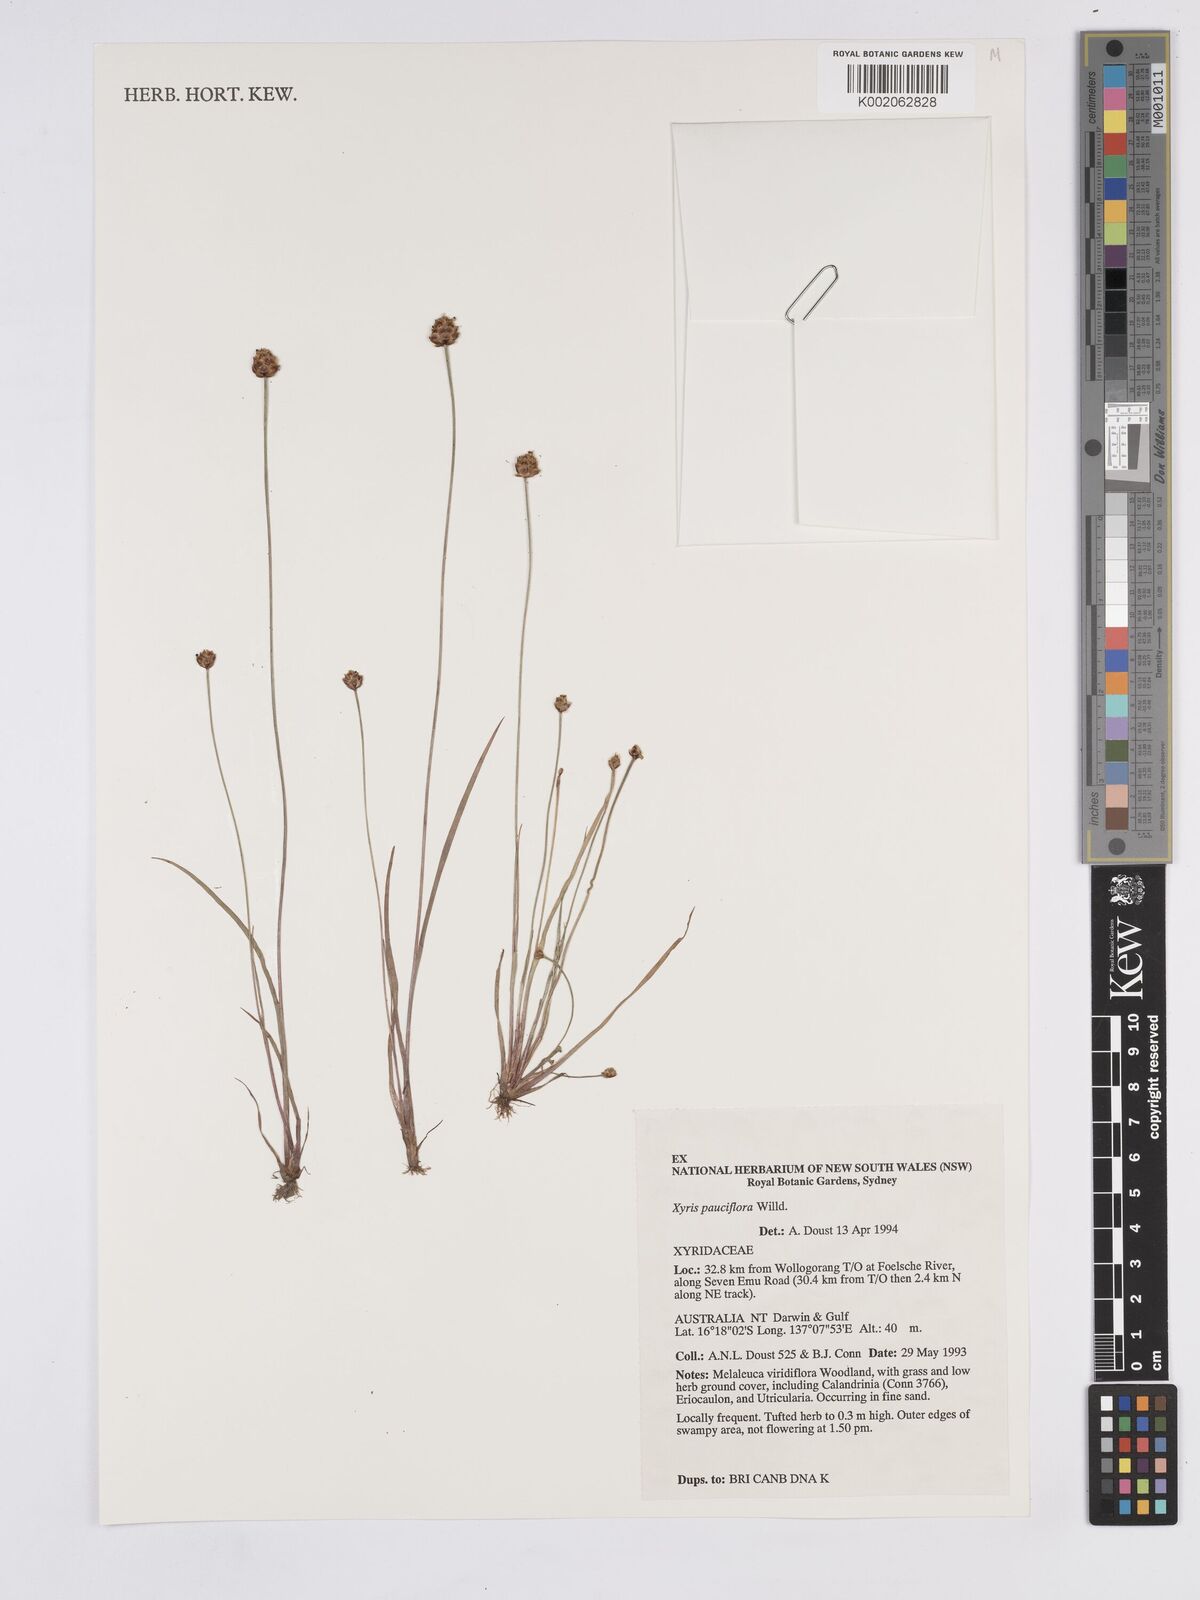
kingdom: Plantae
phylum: Tracheophyta
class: Liliopsida
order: Poales
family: Xyridaceae
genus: Xyris
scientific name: Xyris pauciflora
